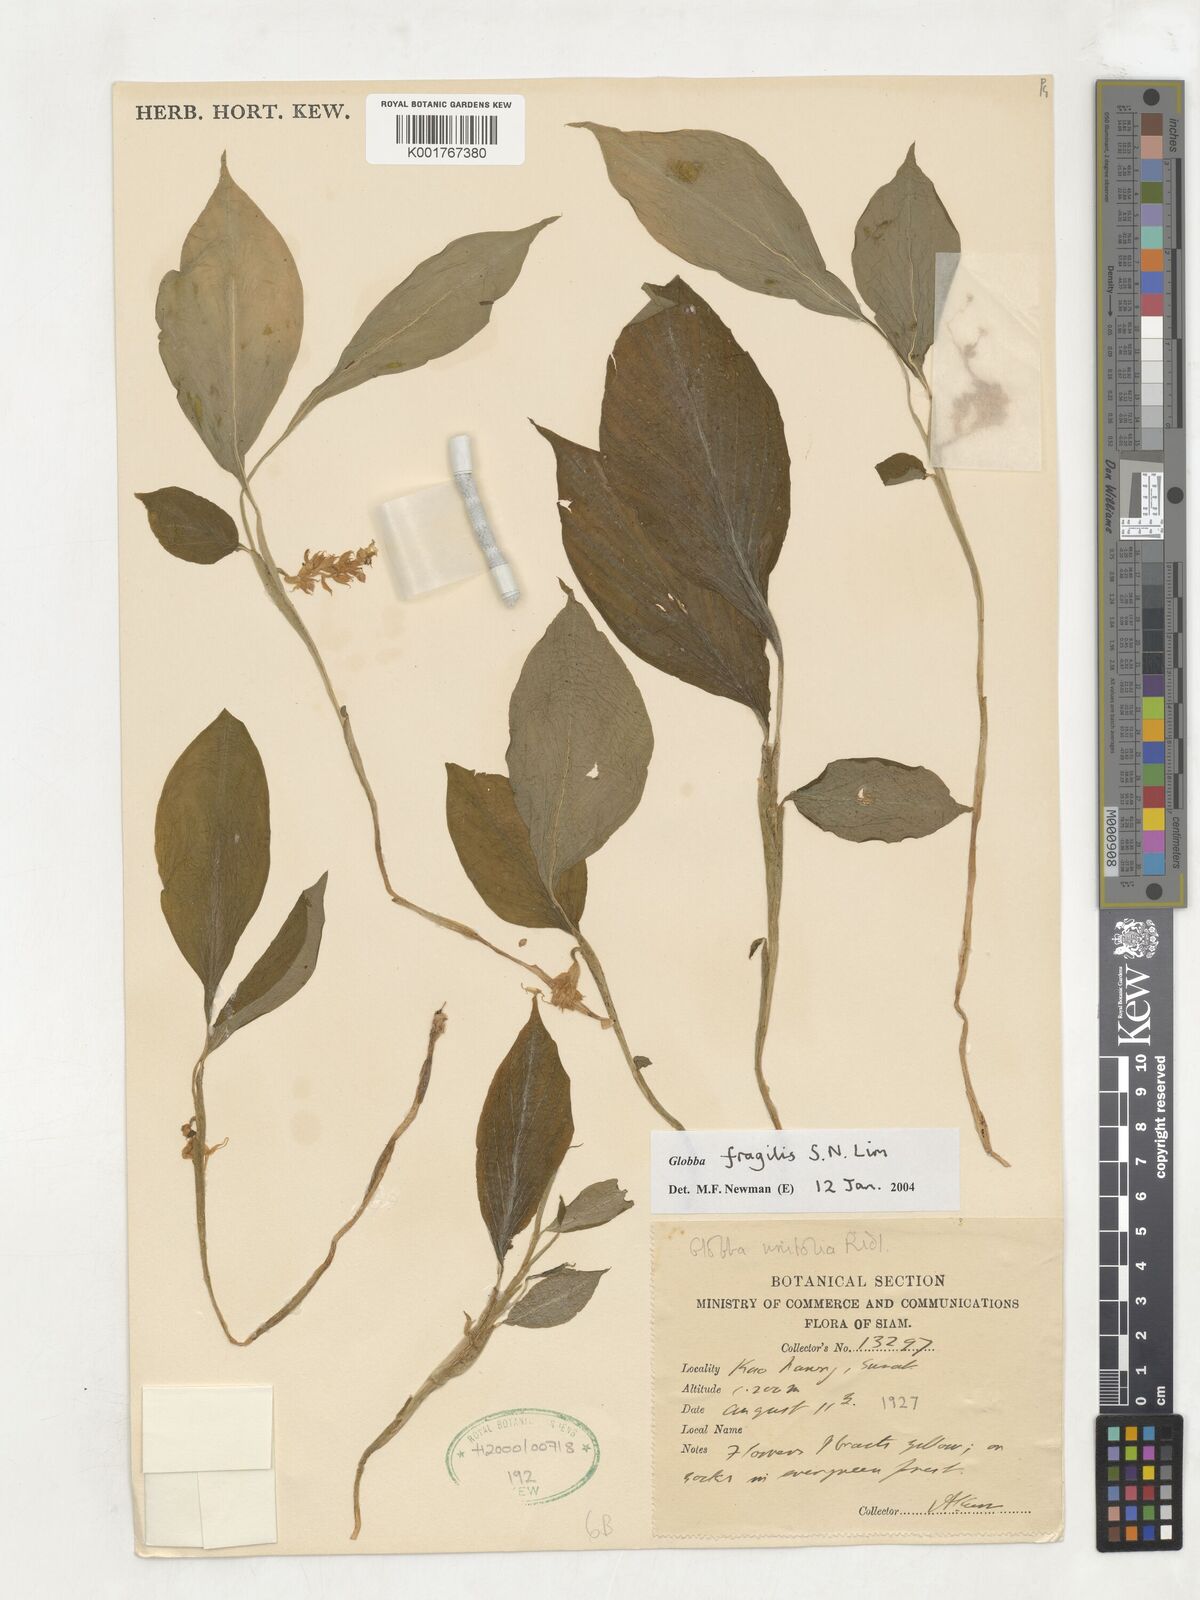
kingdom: Plantae
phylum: Tracheophyta
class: Liliopsida
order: Zingiberales
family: Zingiberaceae
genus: Globba
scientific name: Globba fragilis
